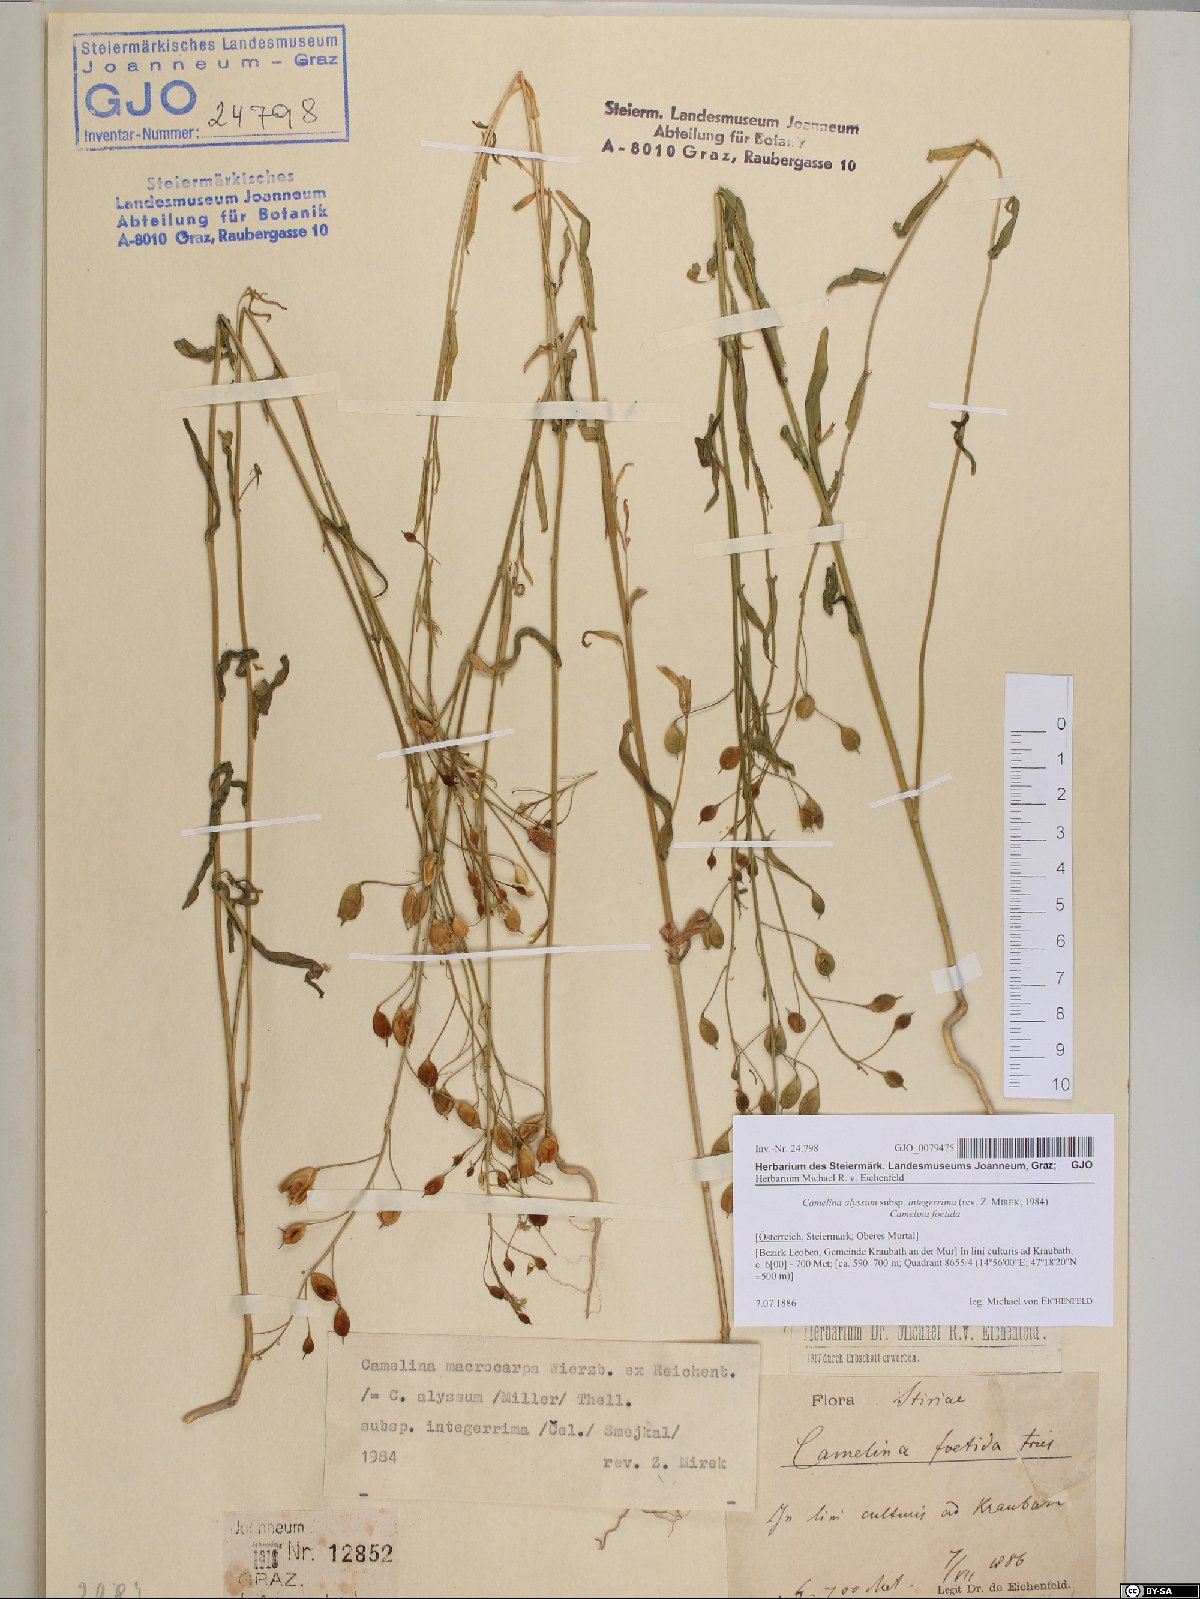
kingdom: Plantae
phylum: Tracheophyta
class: Magnoliopsida
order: Brassicales
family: Brassicaceae
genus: Camelina
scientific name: Camelina alyssum
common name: Gold-of-pleasure
